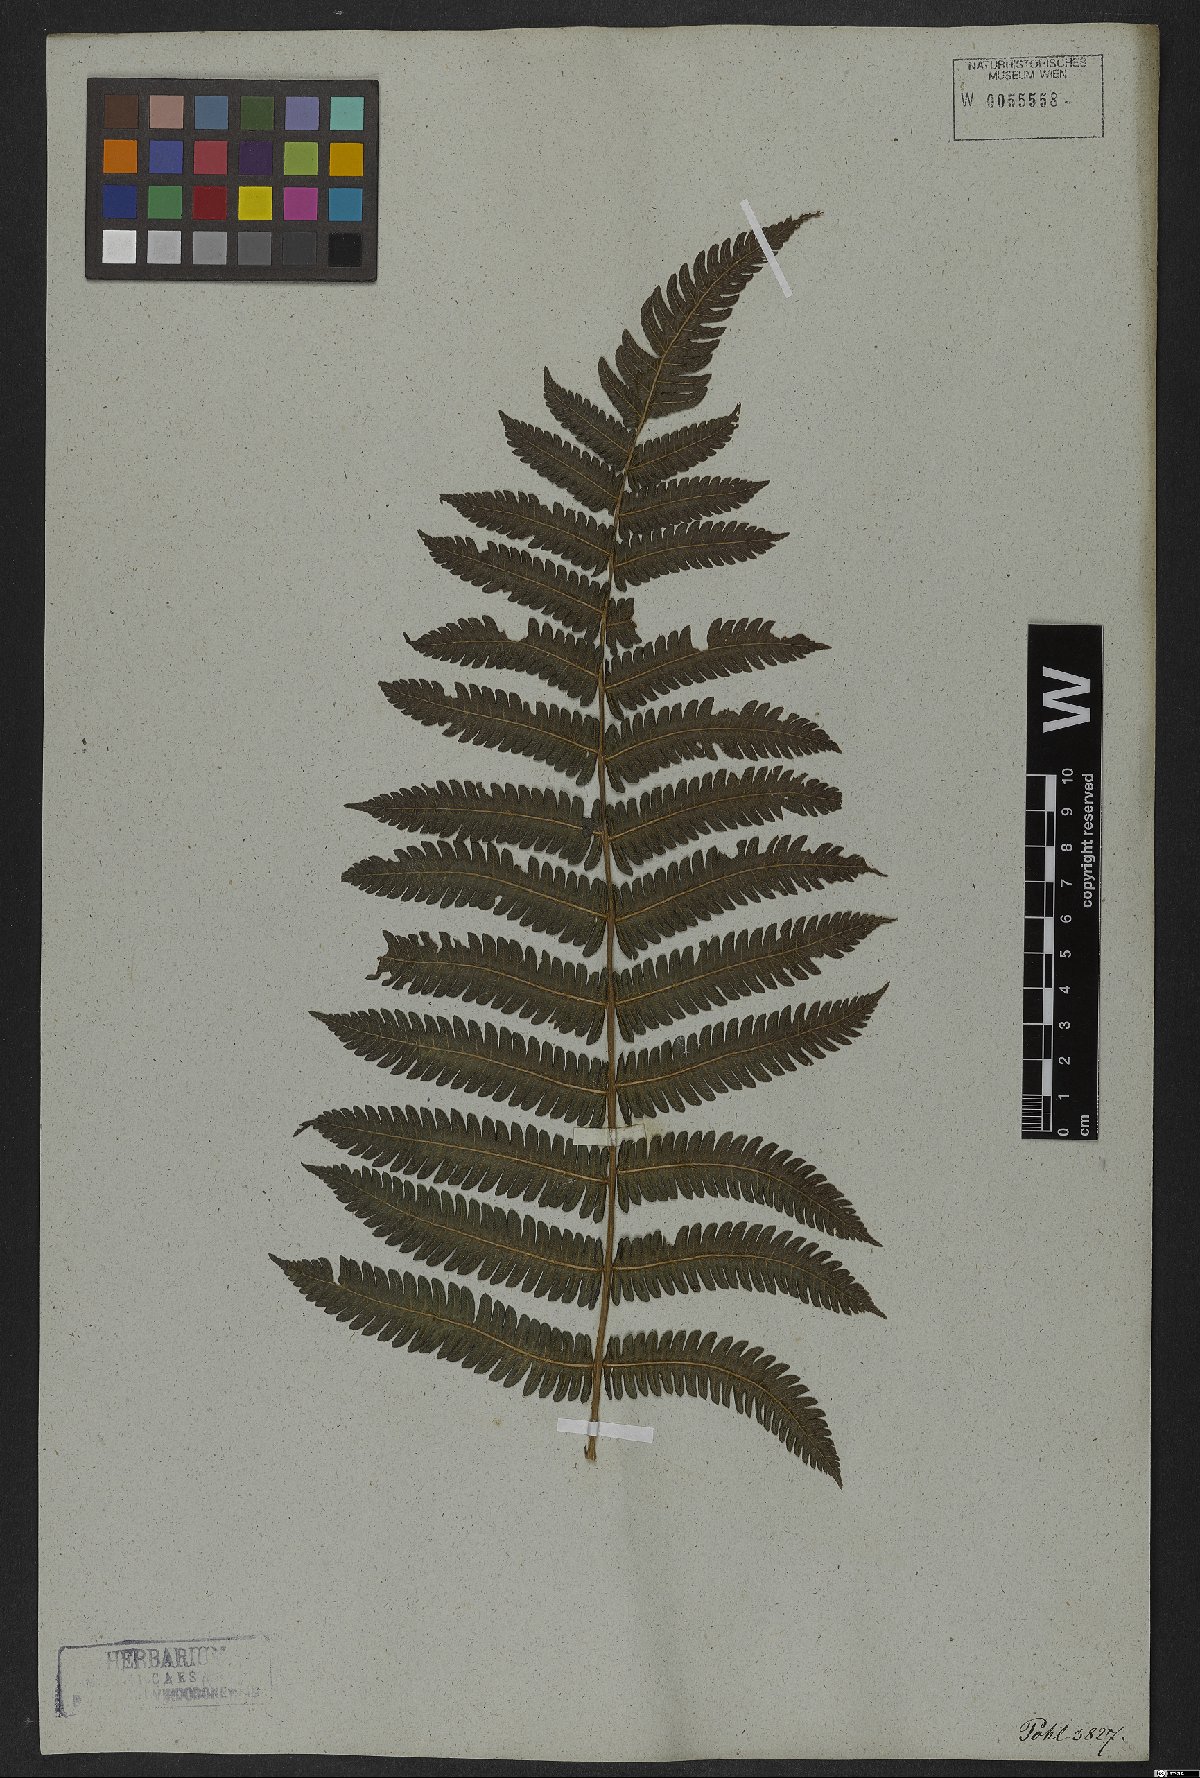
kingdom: Plantae
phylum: Tracheophyta
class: Polypodiopsida
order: Polypodiales
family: Thelypteridaceae
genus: Goniopteris
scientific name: Goniopteris lugubris
